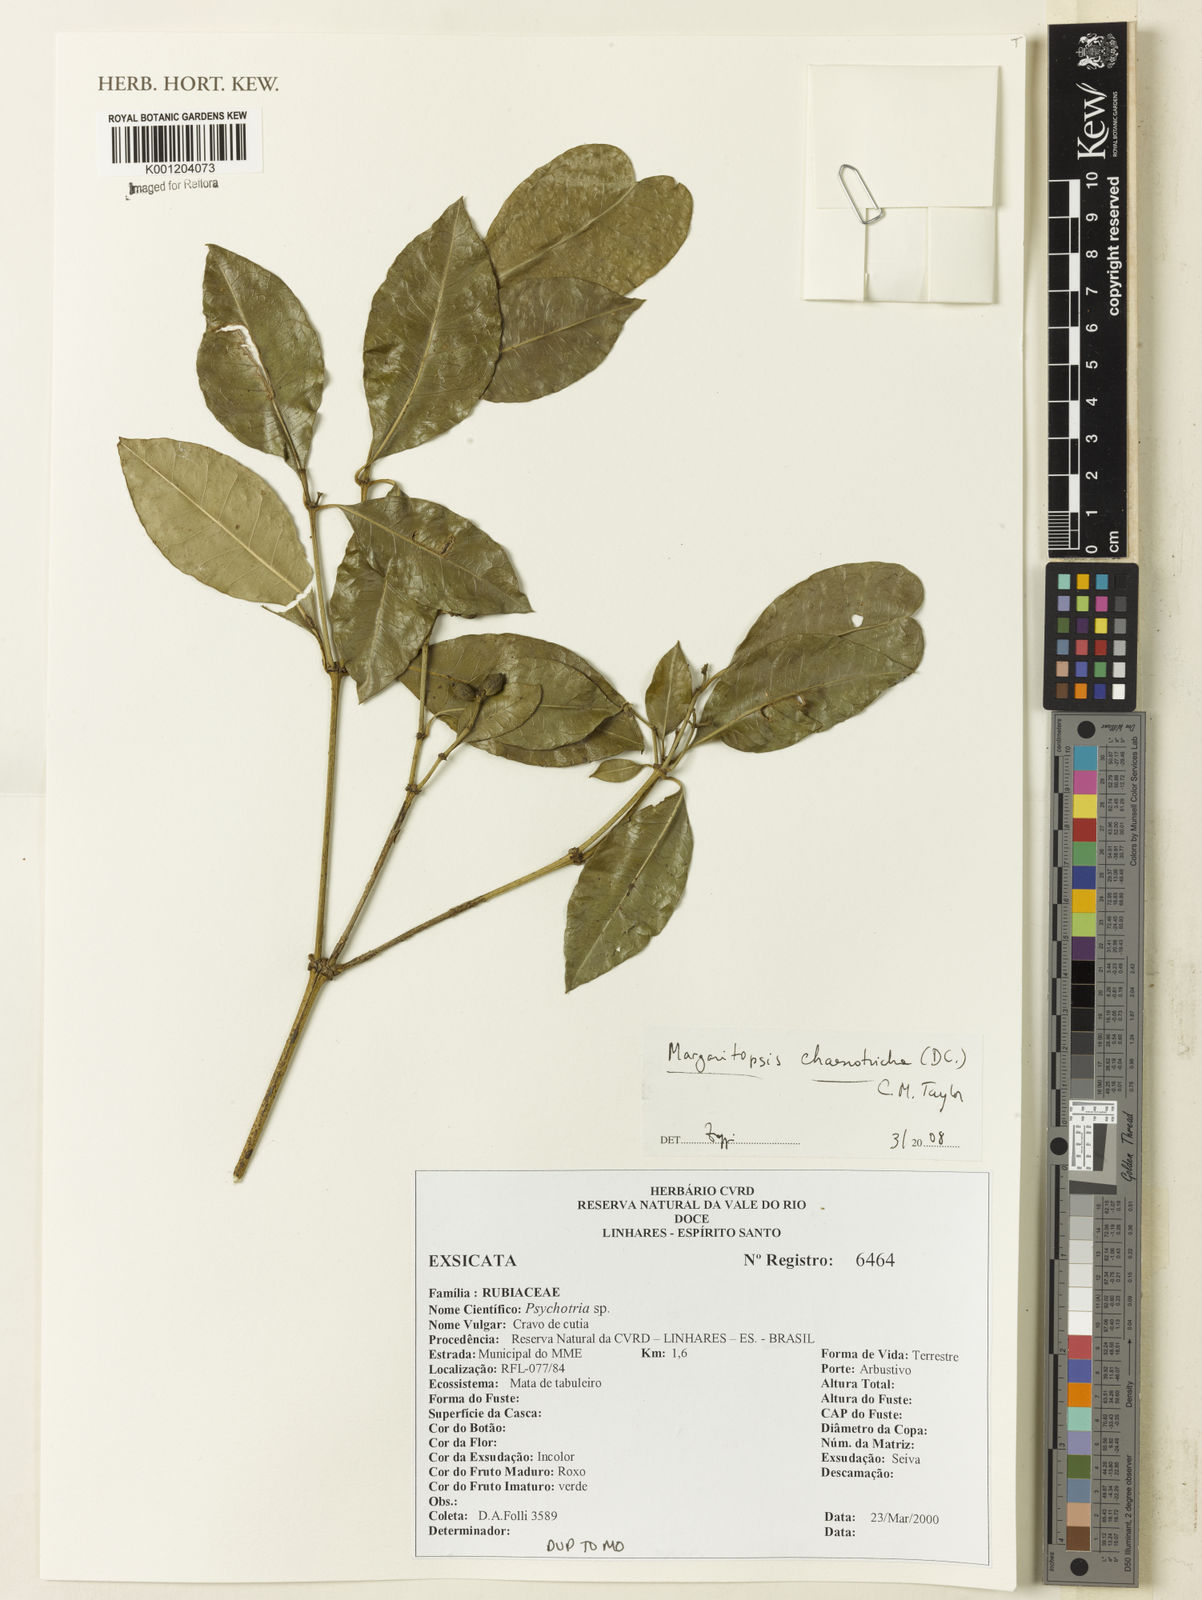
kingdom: Plantae
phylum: Tracheophyta
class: Magnoliopsida
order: Gentianales
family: Rubiaceae
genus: Eumachia
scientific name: Eumachia chaenotricha
